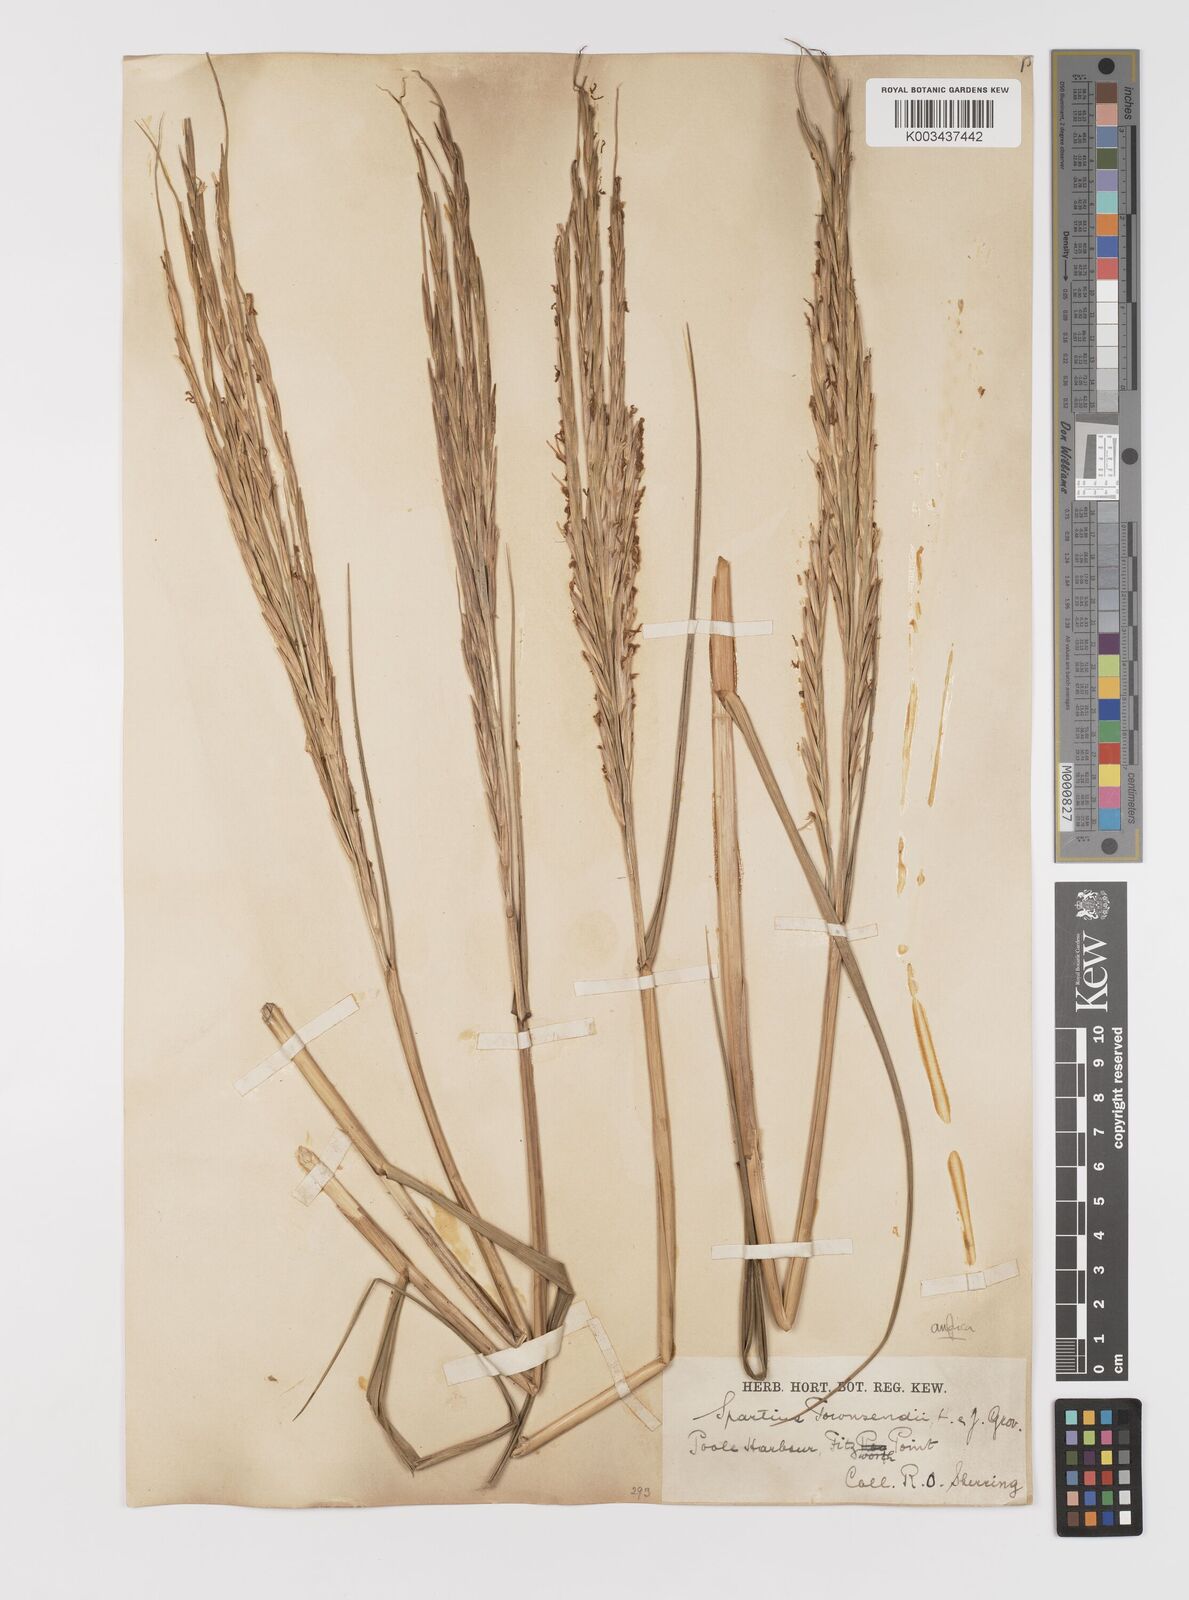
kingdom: Plantae
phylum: Tracheophyta
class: Liliopsida
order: Poales
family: Poaceae
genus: Sporobolus
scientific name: Sporobolus anglicus
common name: English cordgrass
